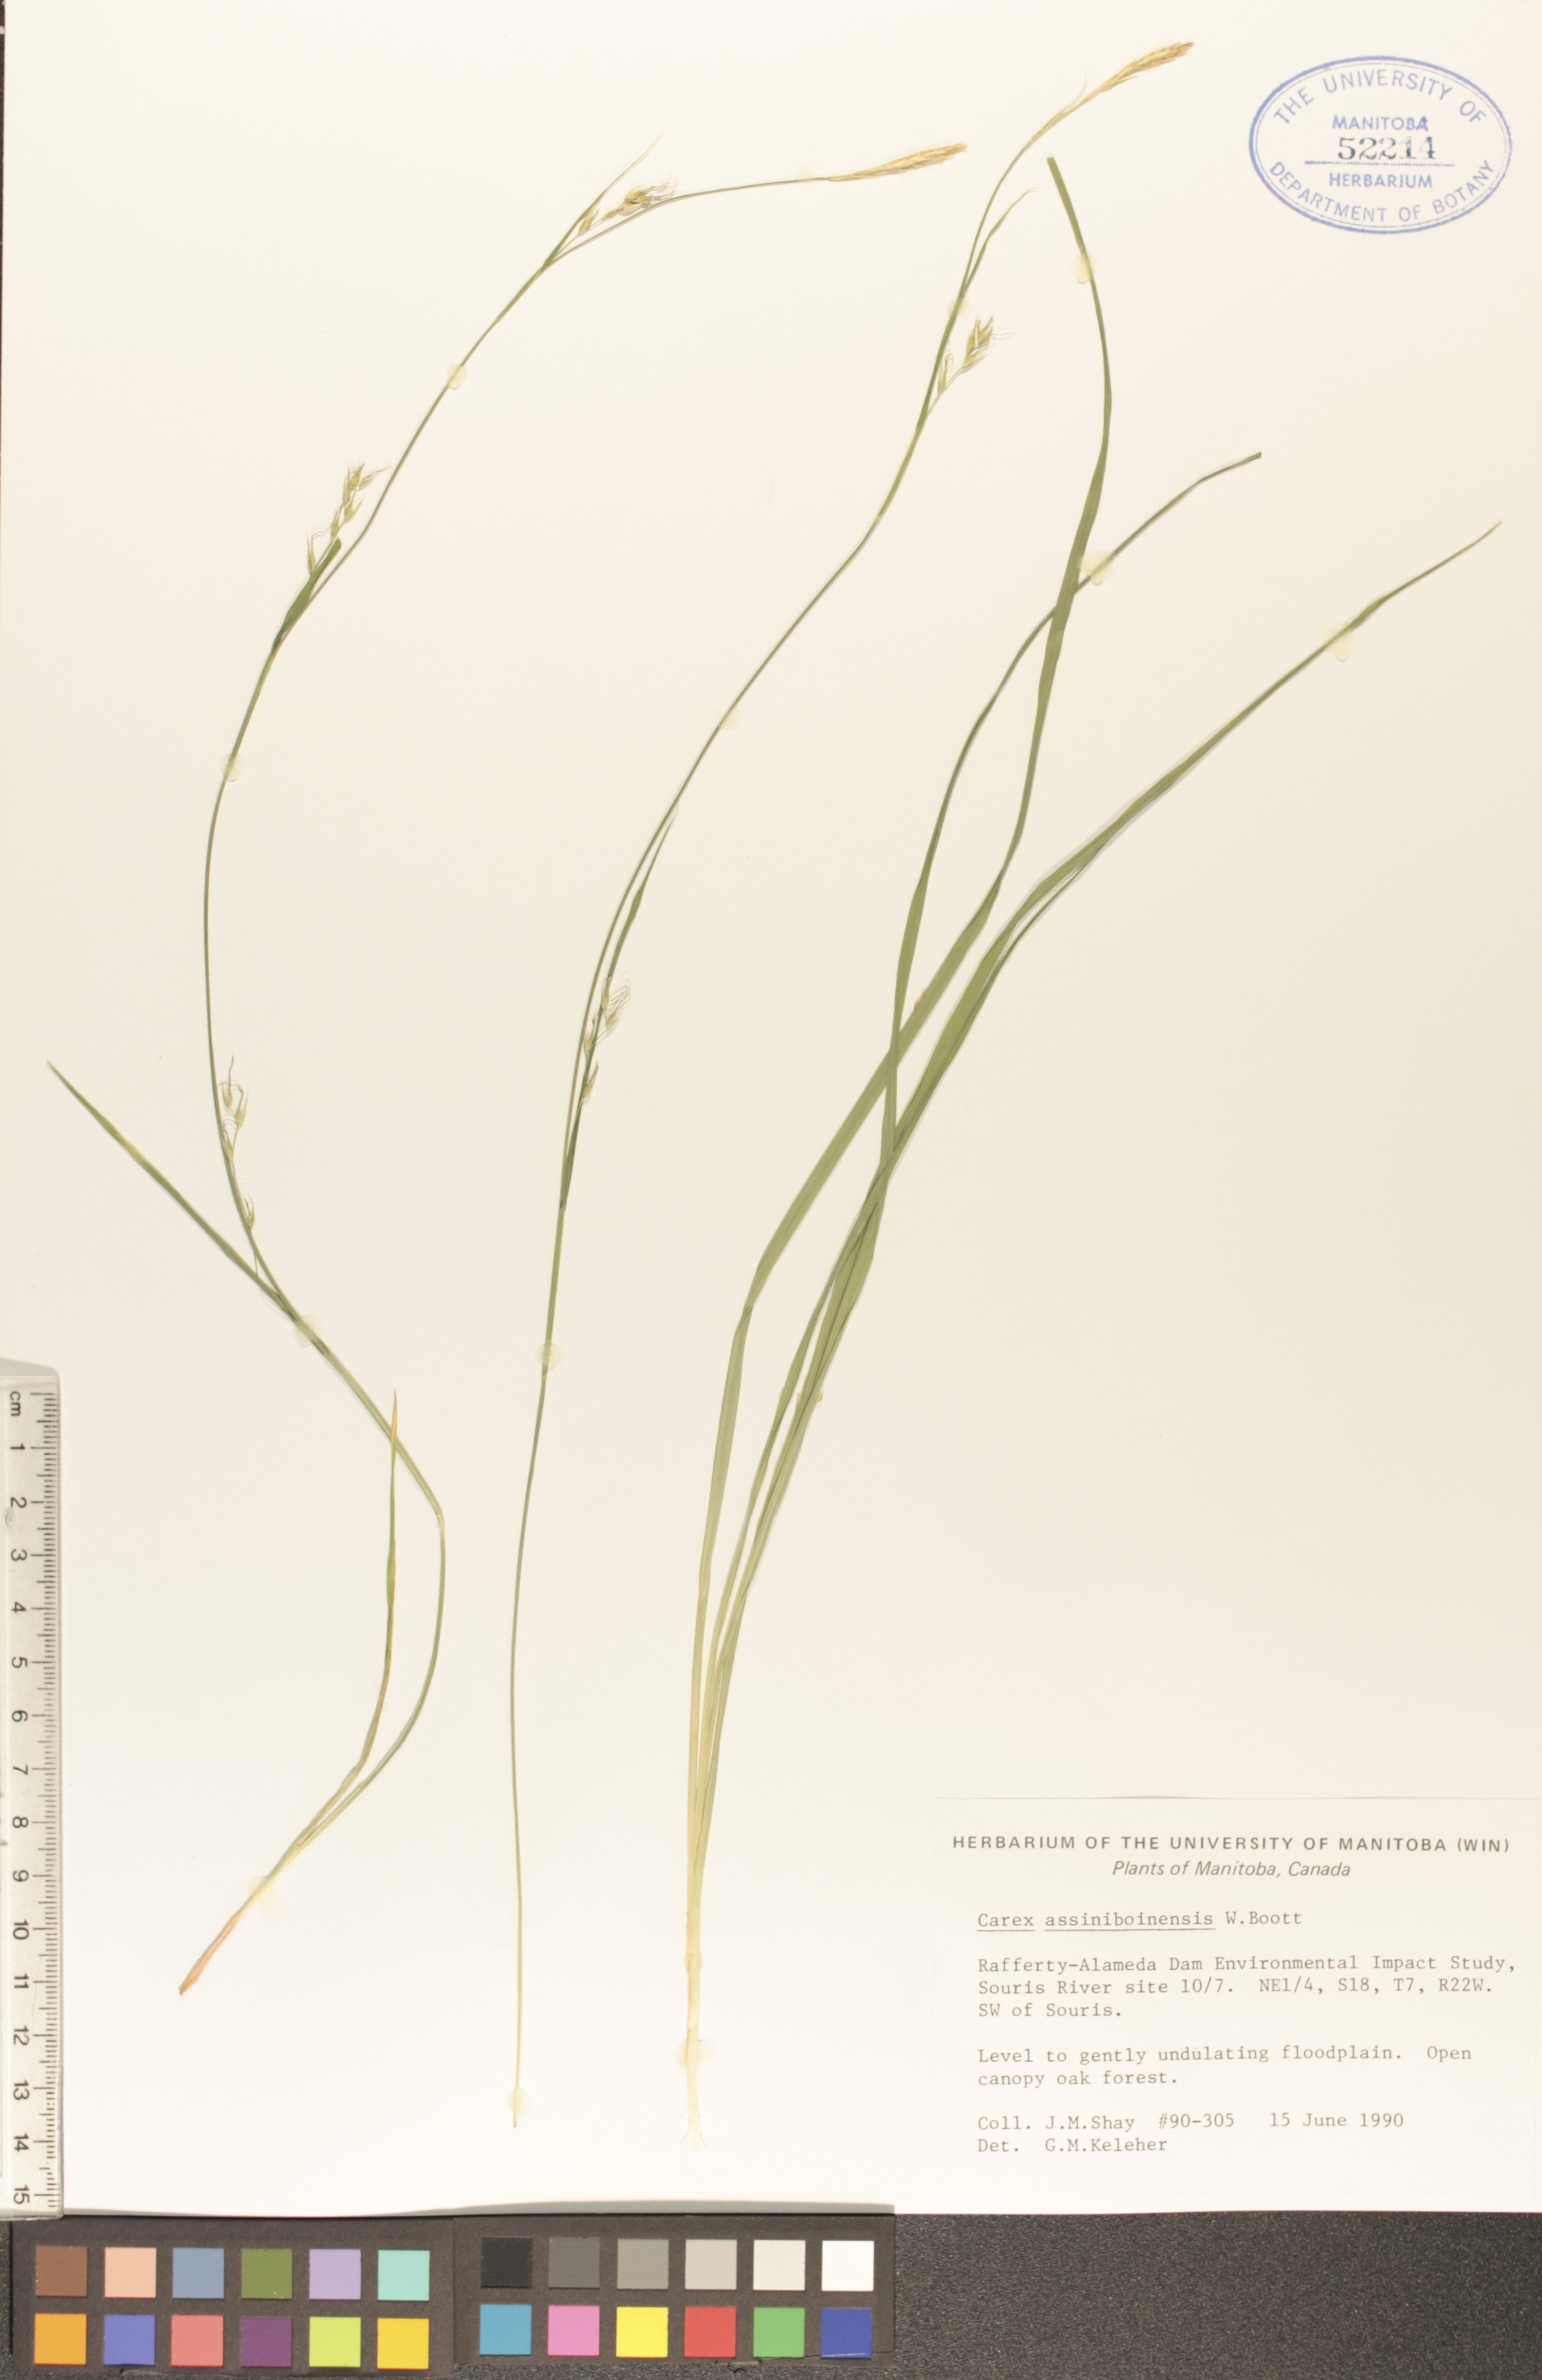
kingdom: Plantae
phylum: Tracheophyta
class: Liliopsida
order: Poales
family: Cyperaceae
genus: Carex
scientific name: Carex assiniboinensis
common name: Assiniboia sedge
